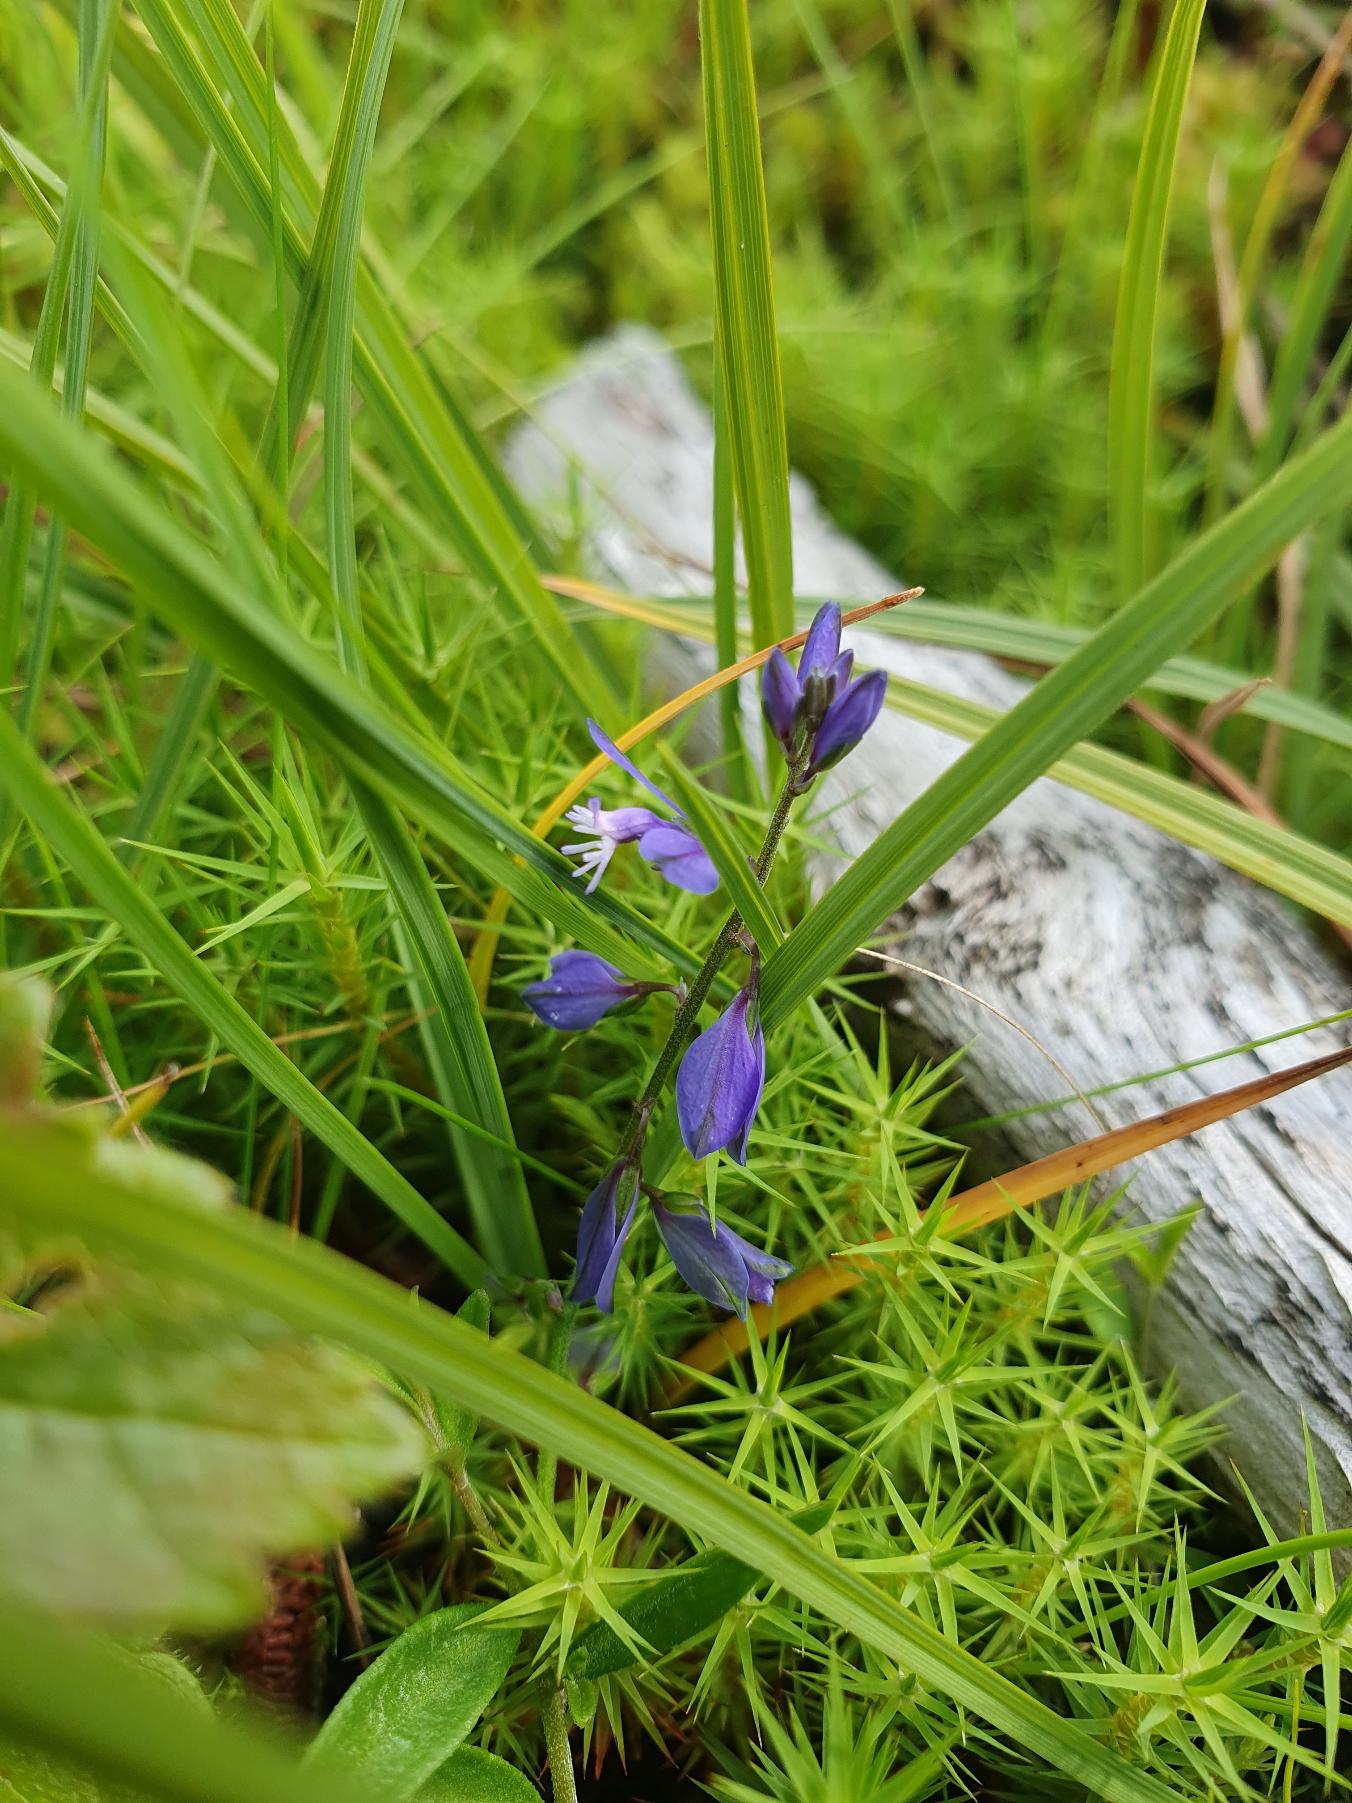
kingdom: Plantae
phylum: Tracheophyta
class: Magnoliopsida
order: Fabales
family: Polygalaceae
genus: Polygala
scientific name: Polygala
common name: Mælkeurtslægten
